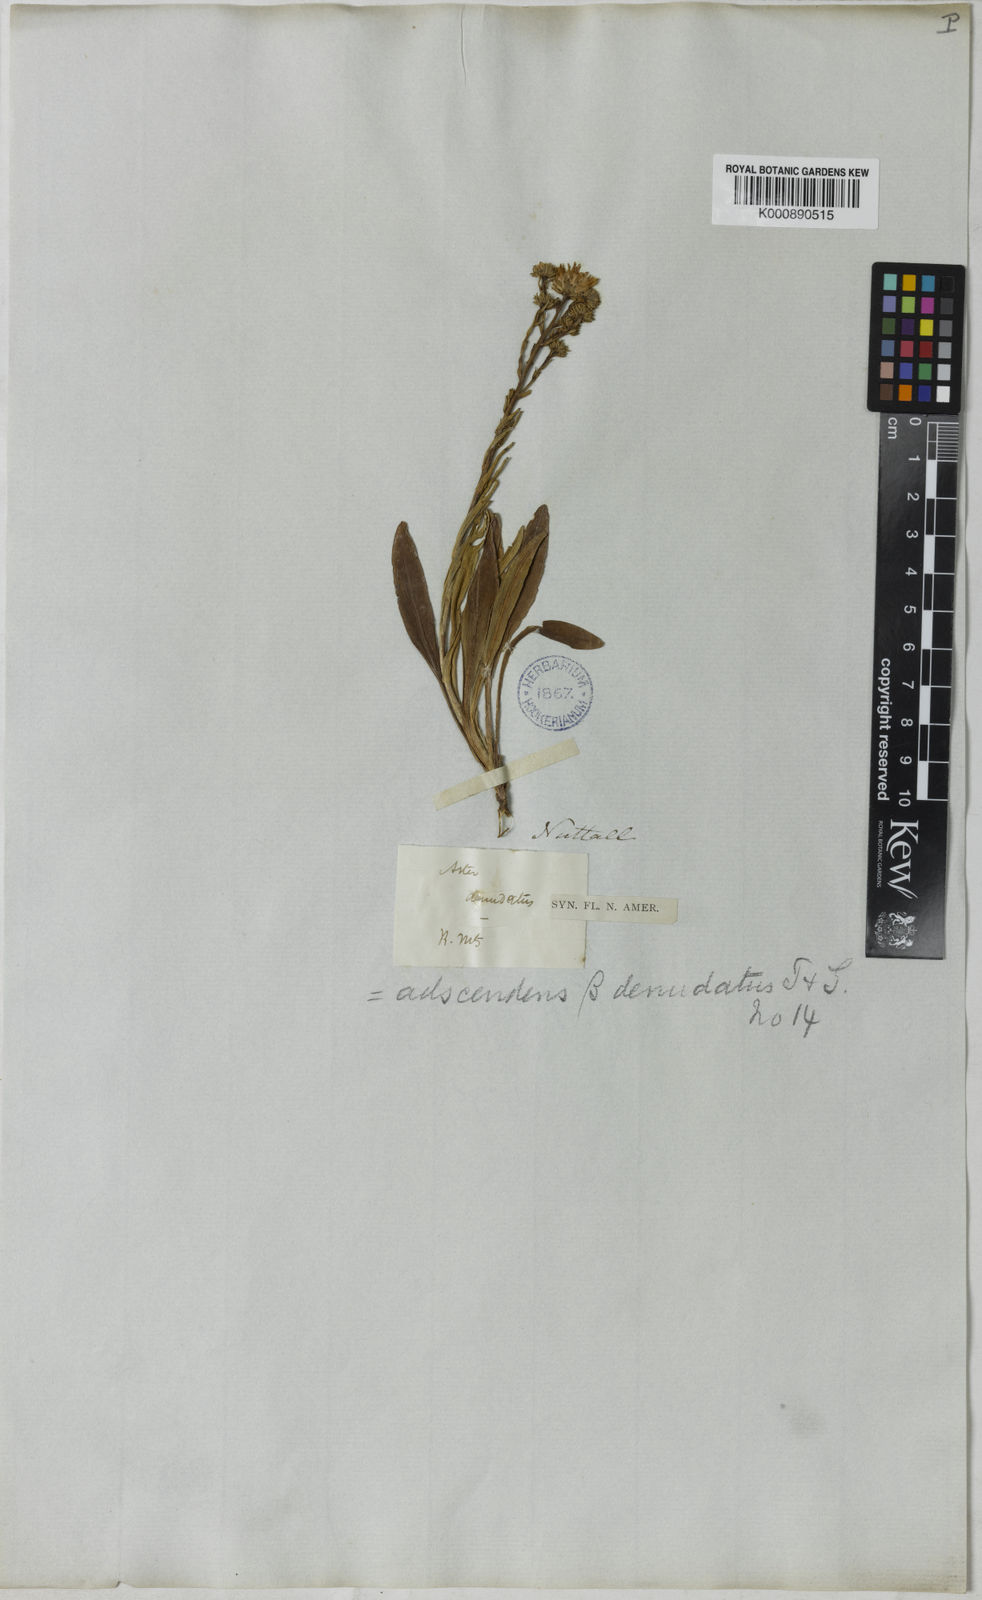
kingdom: Plantae
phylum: Tracheophyta
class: Magnoliopsida
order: Asterales
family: Asteraceae
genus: Noticastrum
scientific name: Noticastrum adscendens
